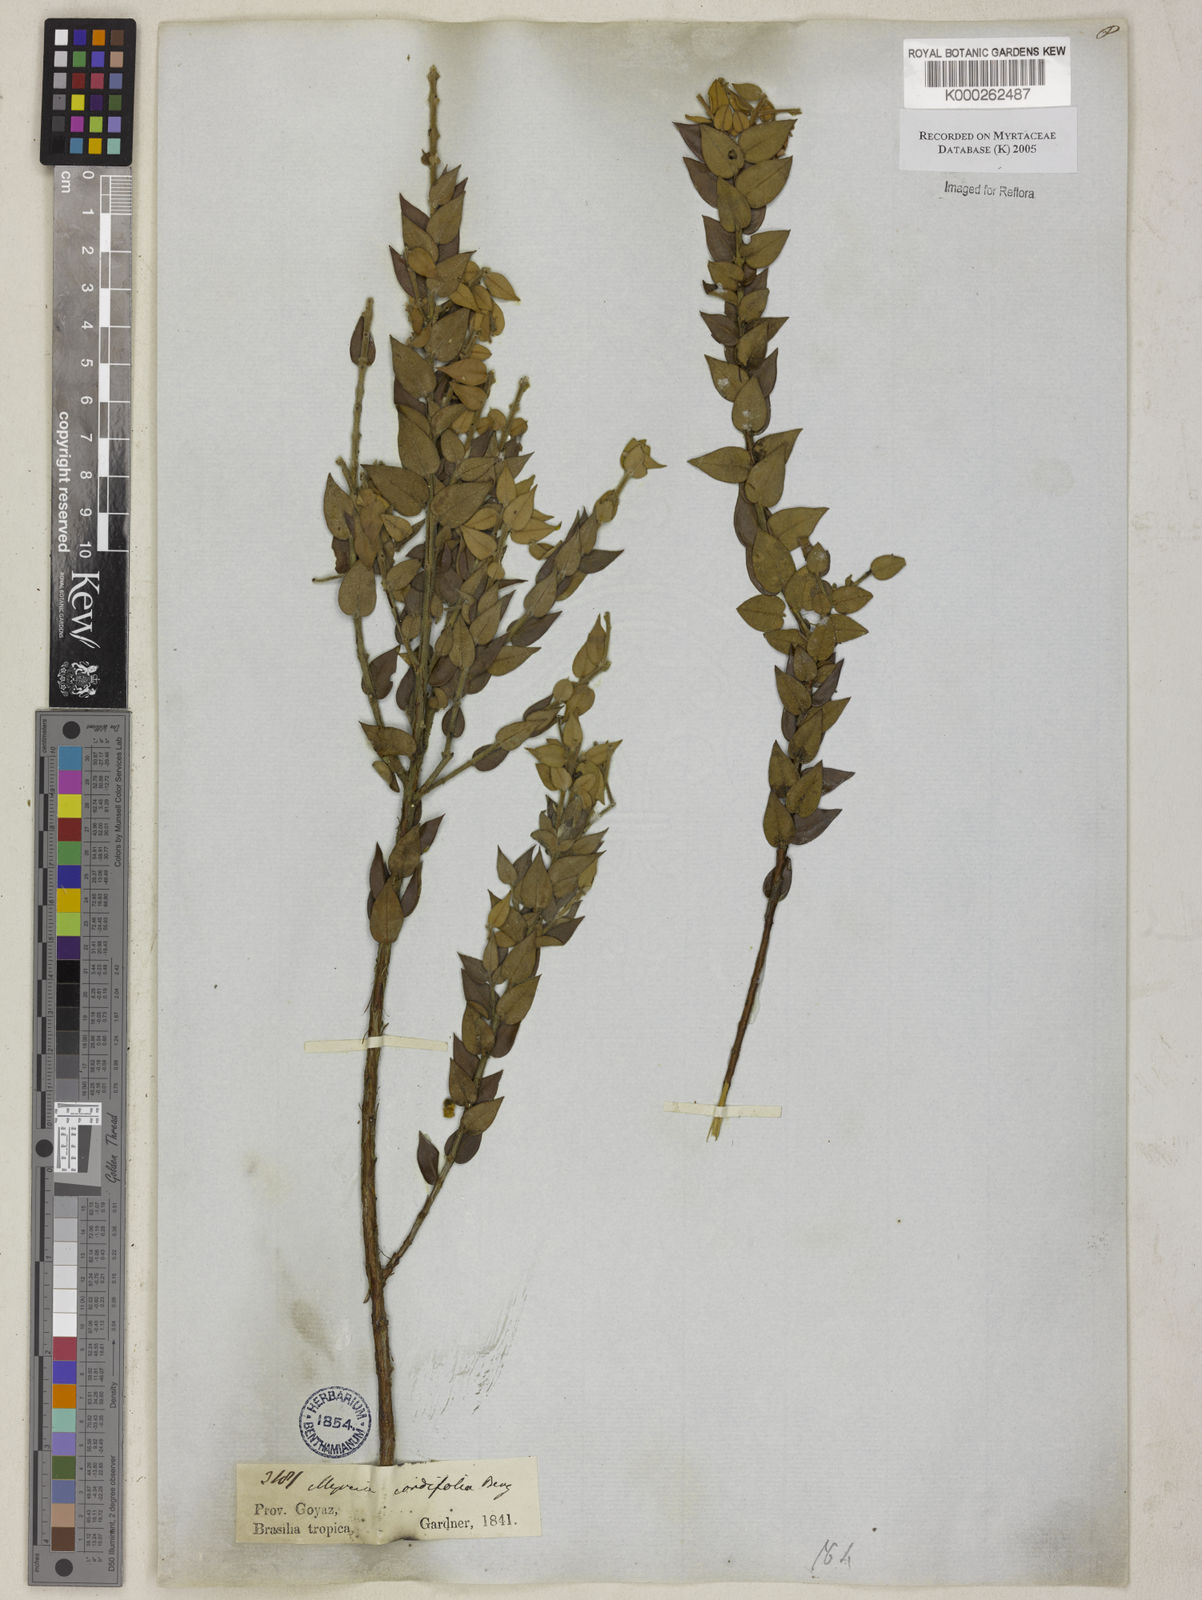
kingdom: Plantae
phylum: Tracheophyta
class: Magnoliopsida
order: Myrtales
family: Myrtaceae
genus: Myrcia
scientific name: Myrcia lasiantha
